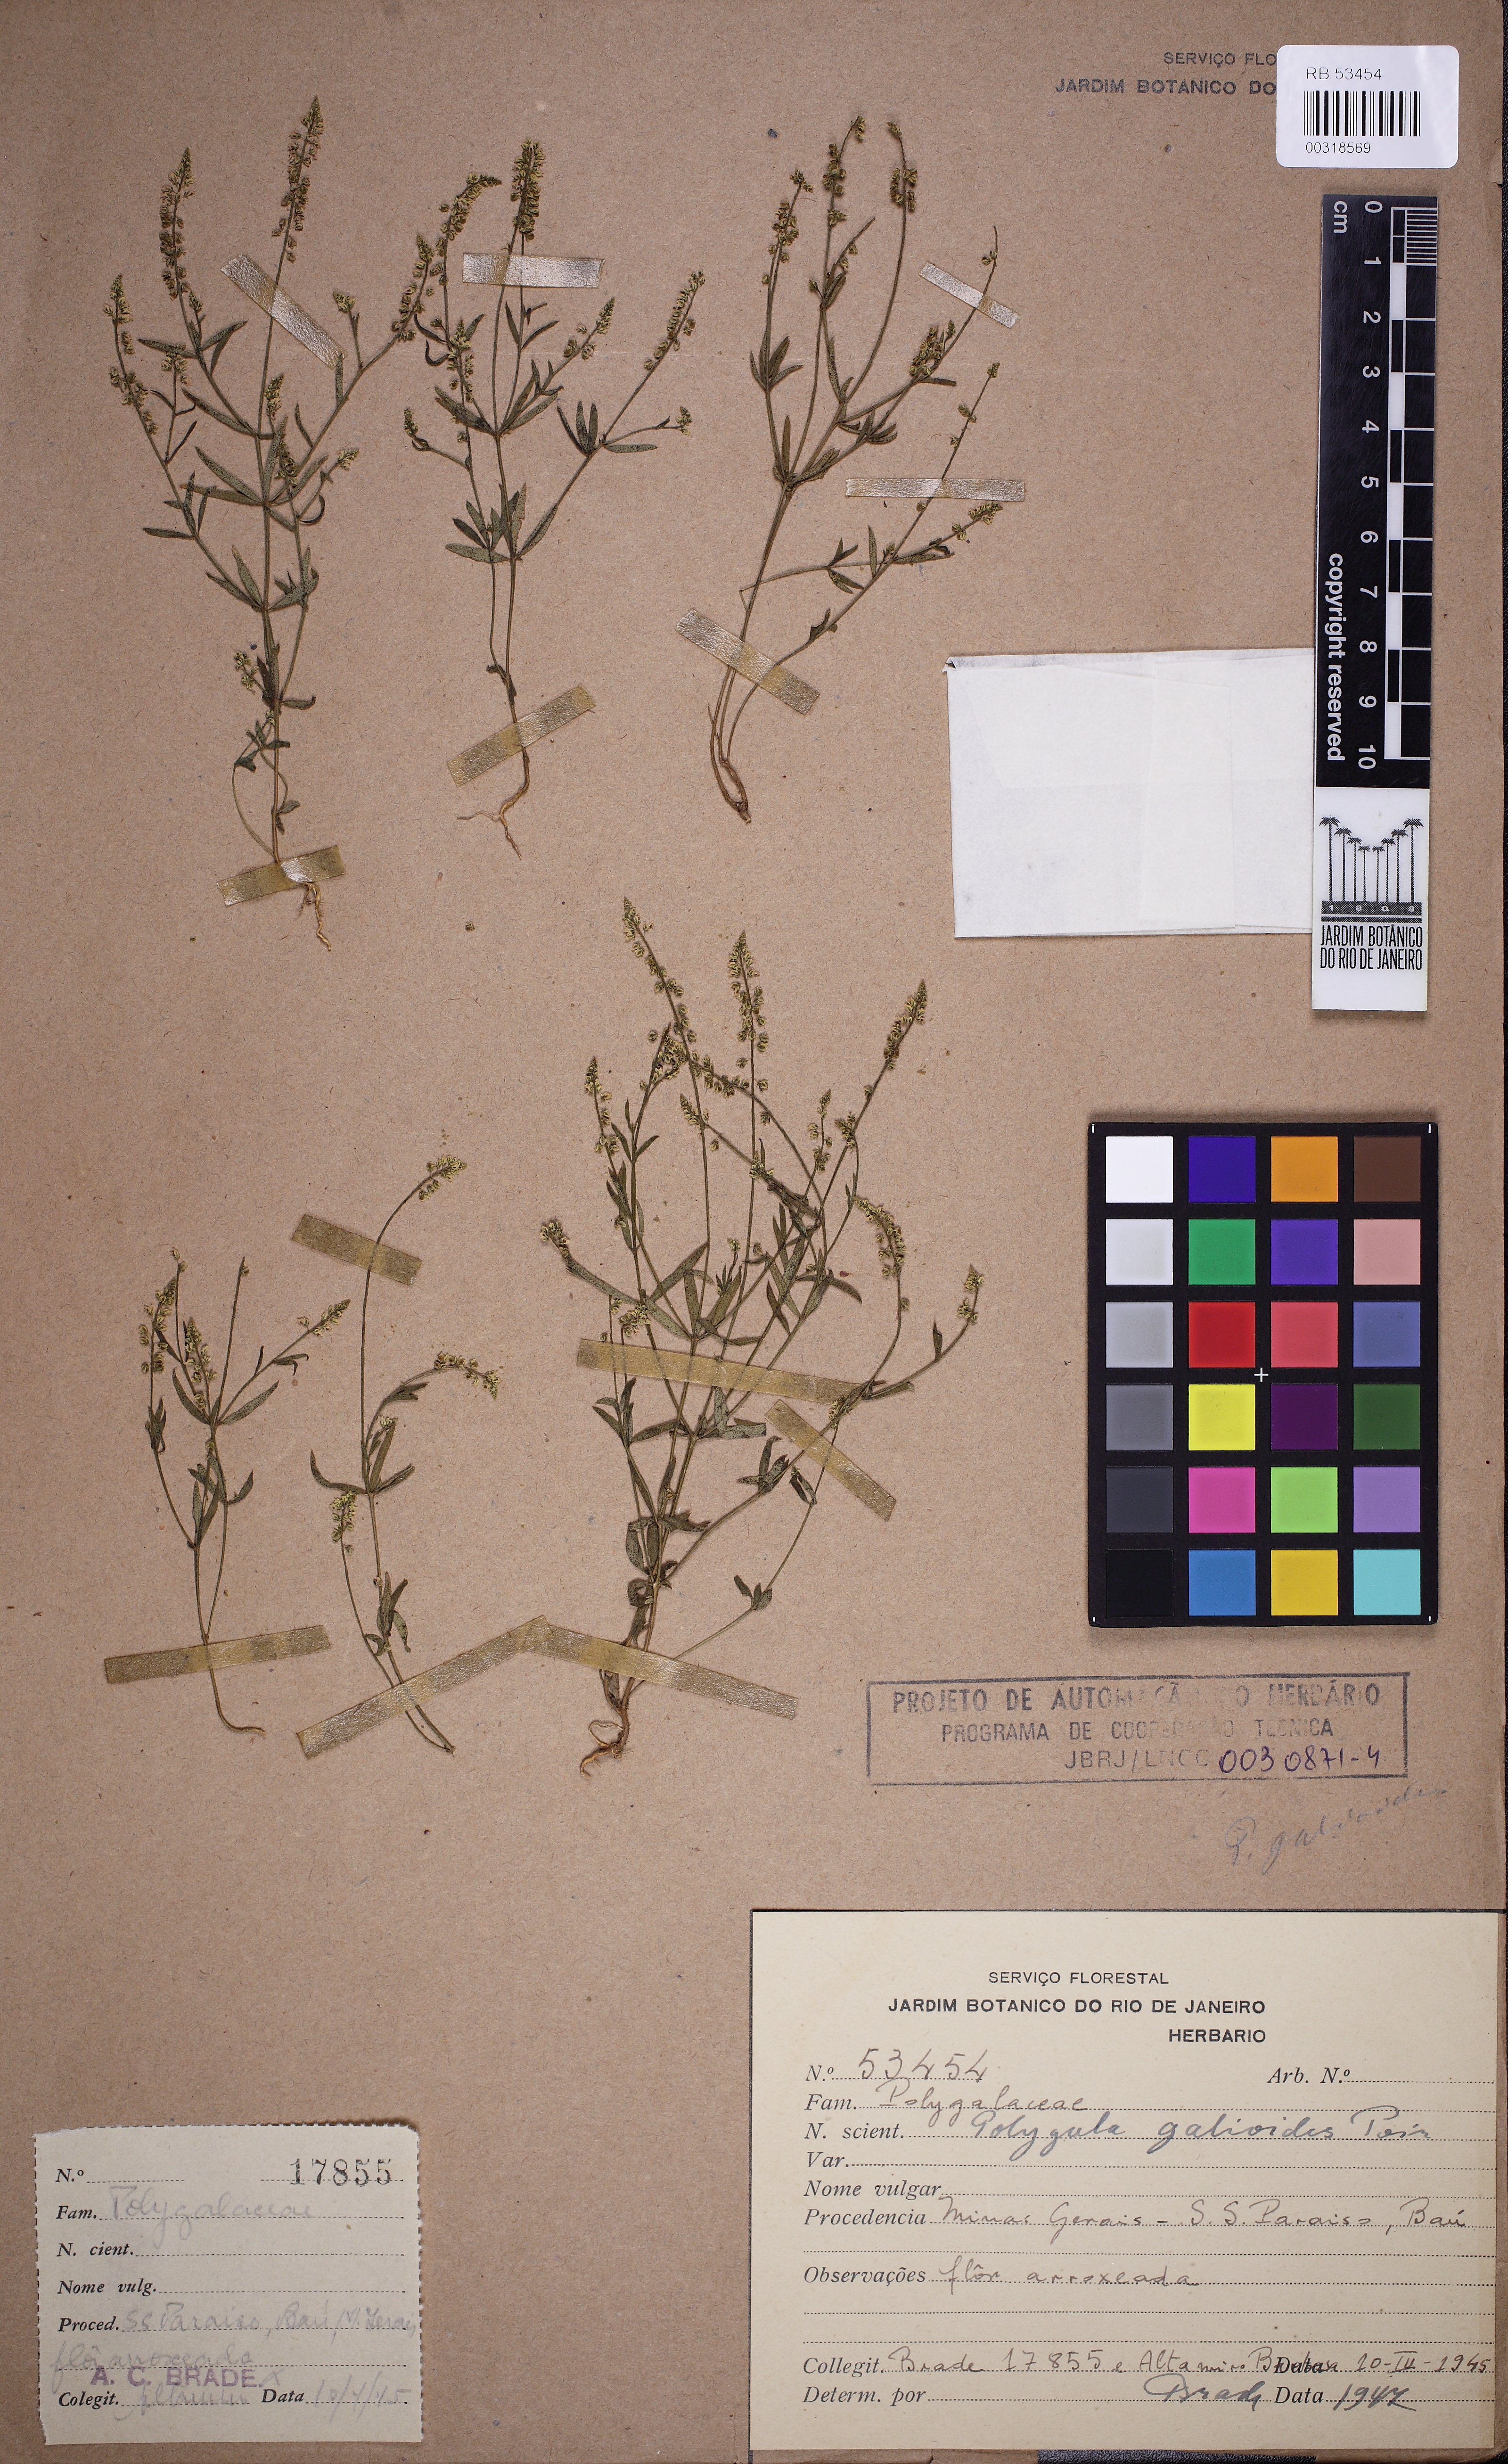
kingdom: Plantae
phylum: Tracheophyta
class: Magnoliopsida
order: Fabales
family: Polygalaceae
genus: Polygala
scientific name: Polygala galioides
